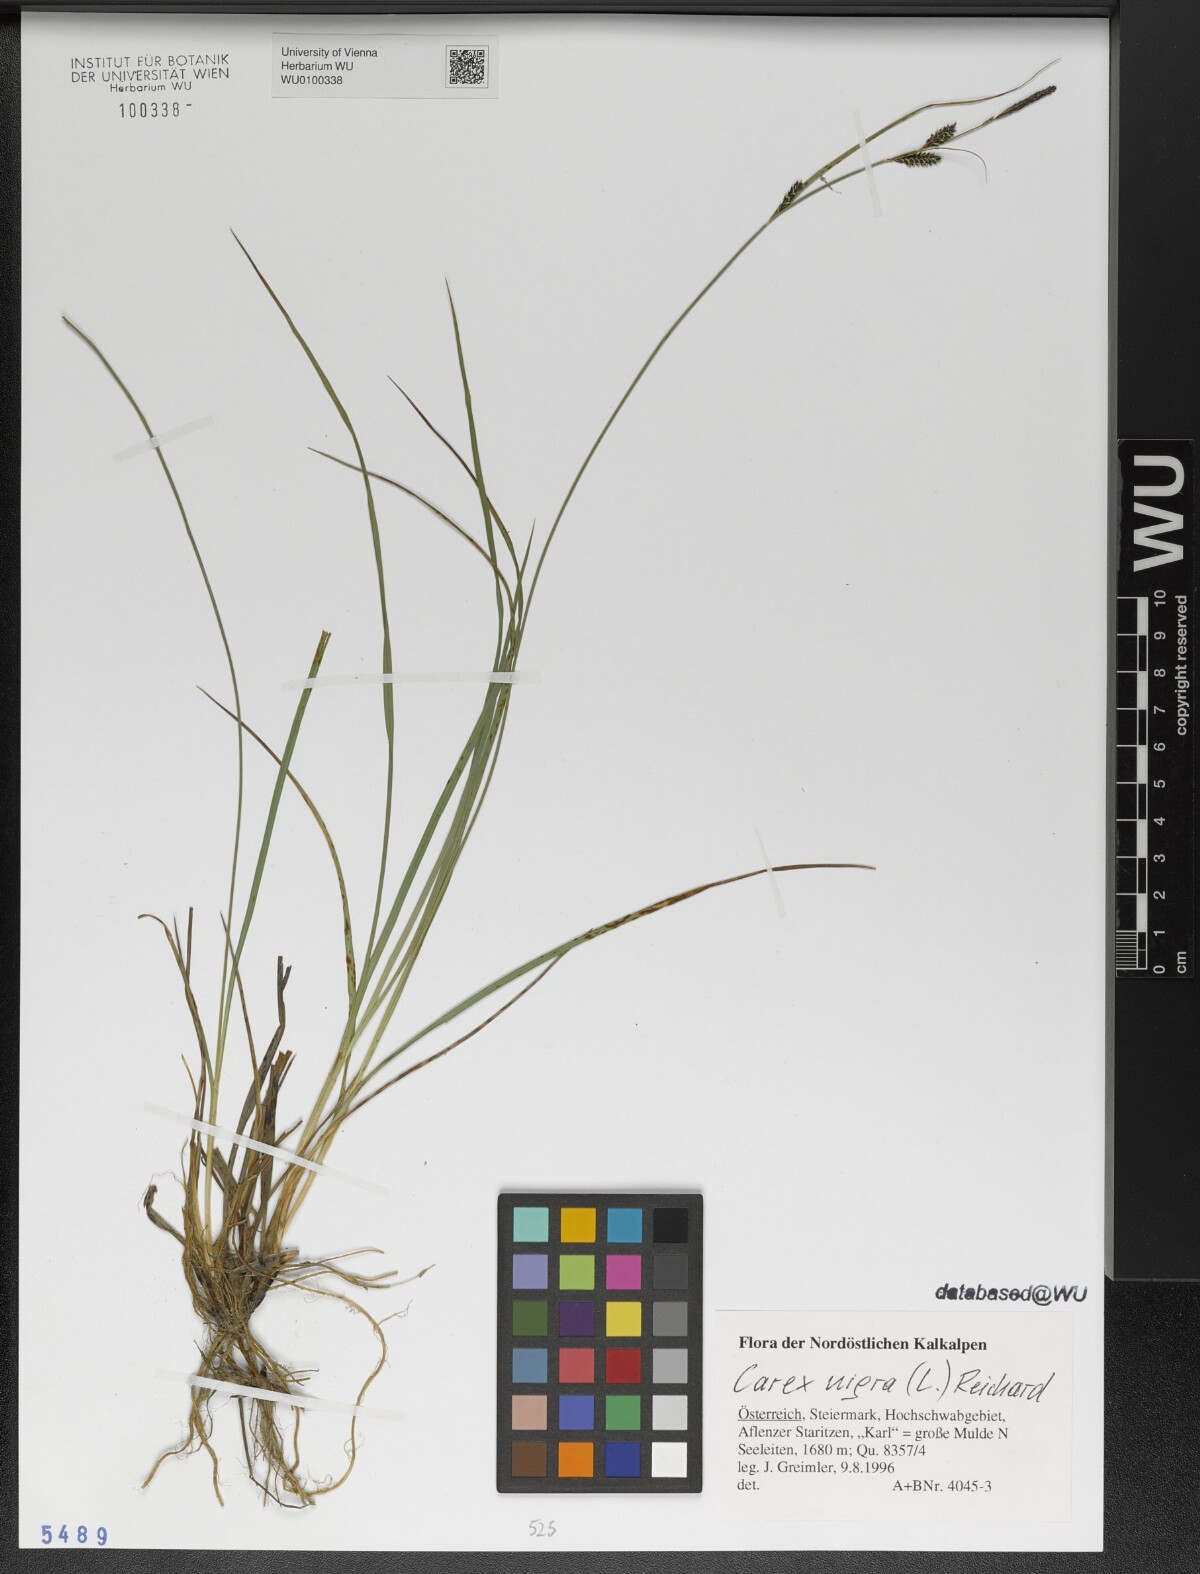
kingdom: Plantae
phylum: Tracheophyta
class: Liliopsida
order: Poales
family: Cyperaceae
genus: Carex
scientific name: Carex nigra
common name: Common sedge
